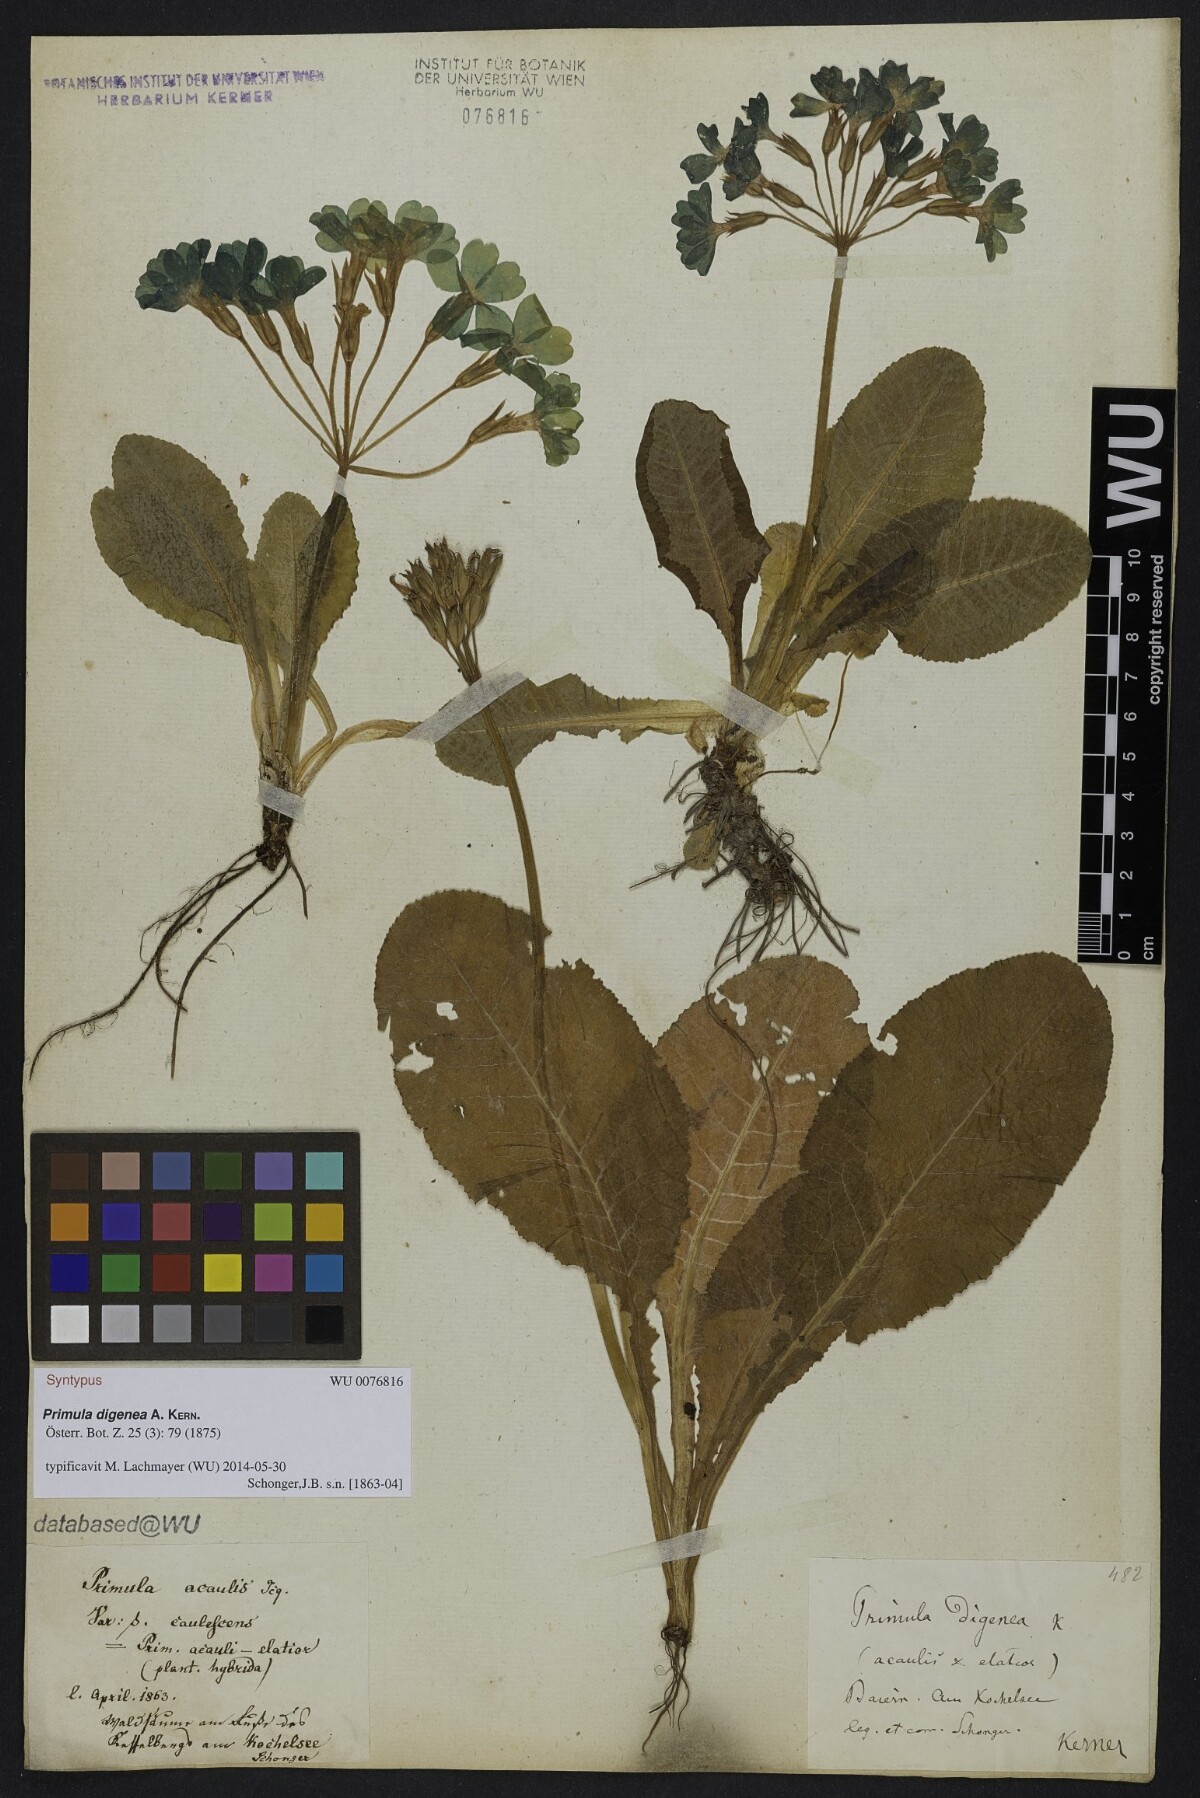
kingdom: Plantae
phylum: Tracheophyta
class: Magnoliopsida
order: Ericales
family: Primulaceae
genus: Primula
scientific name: Primula digenea
